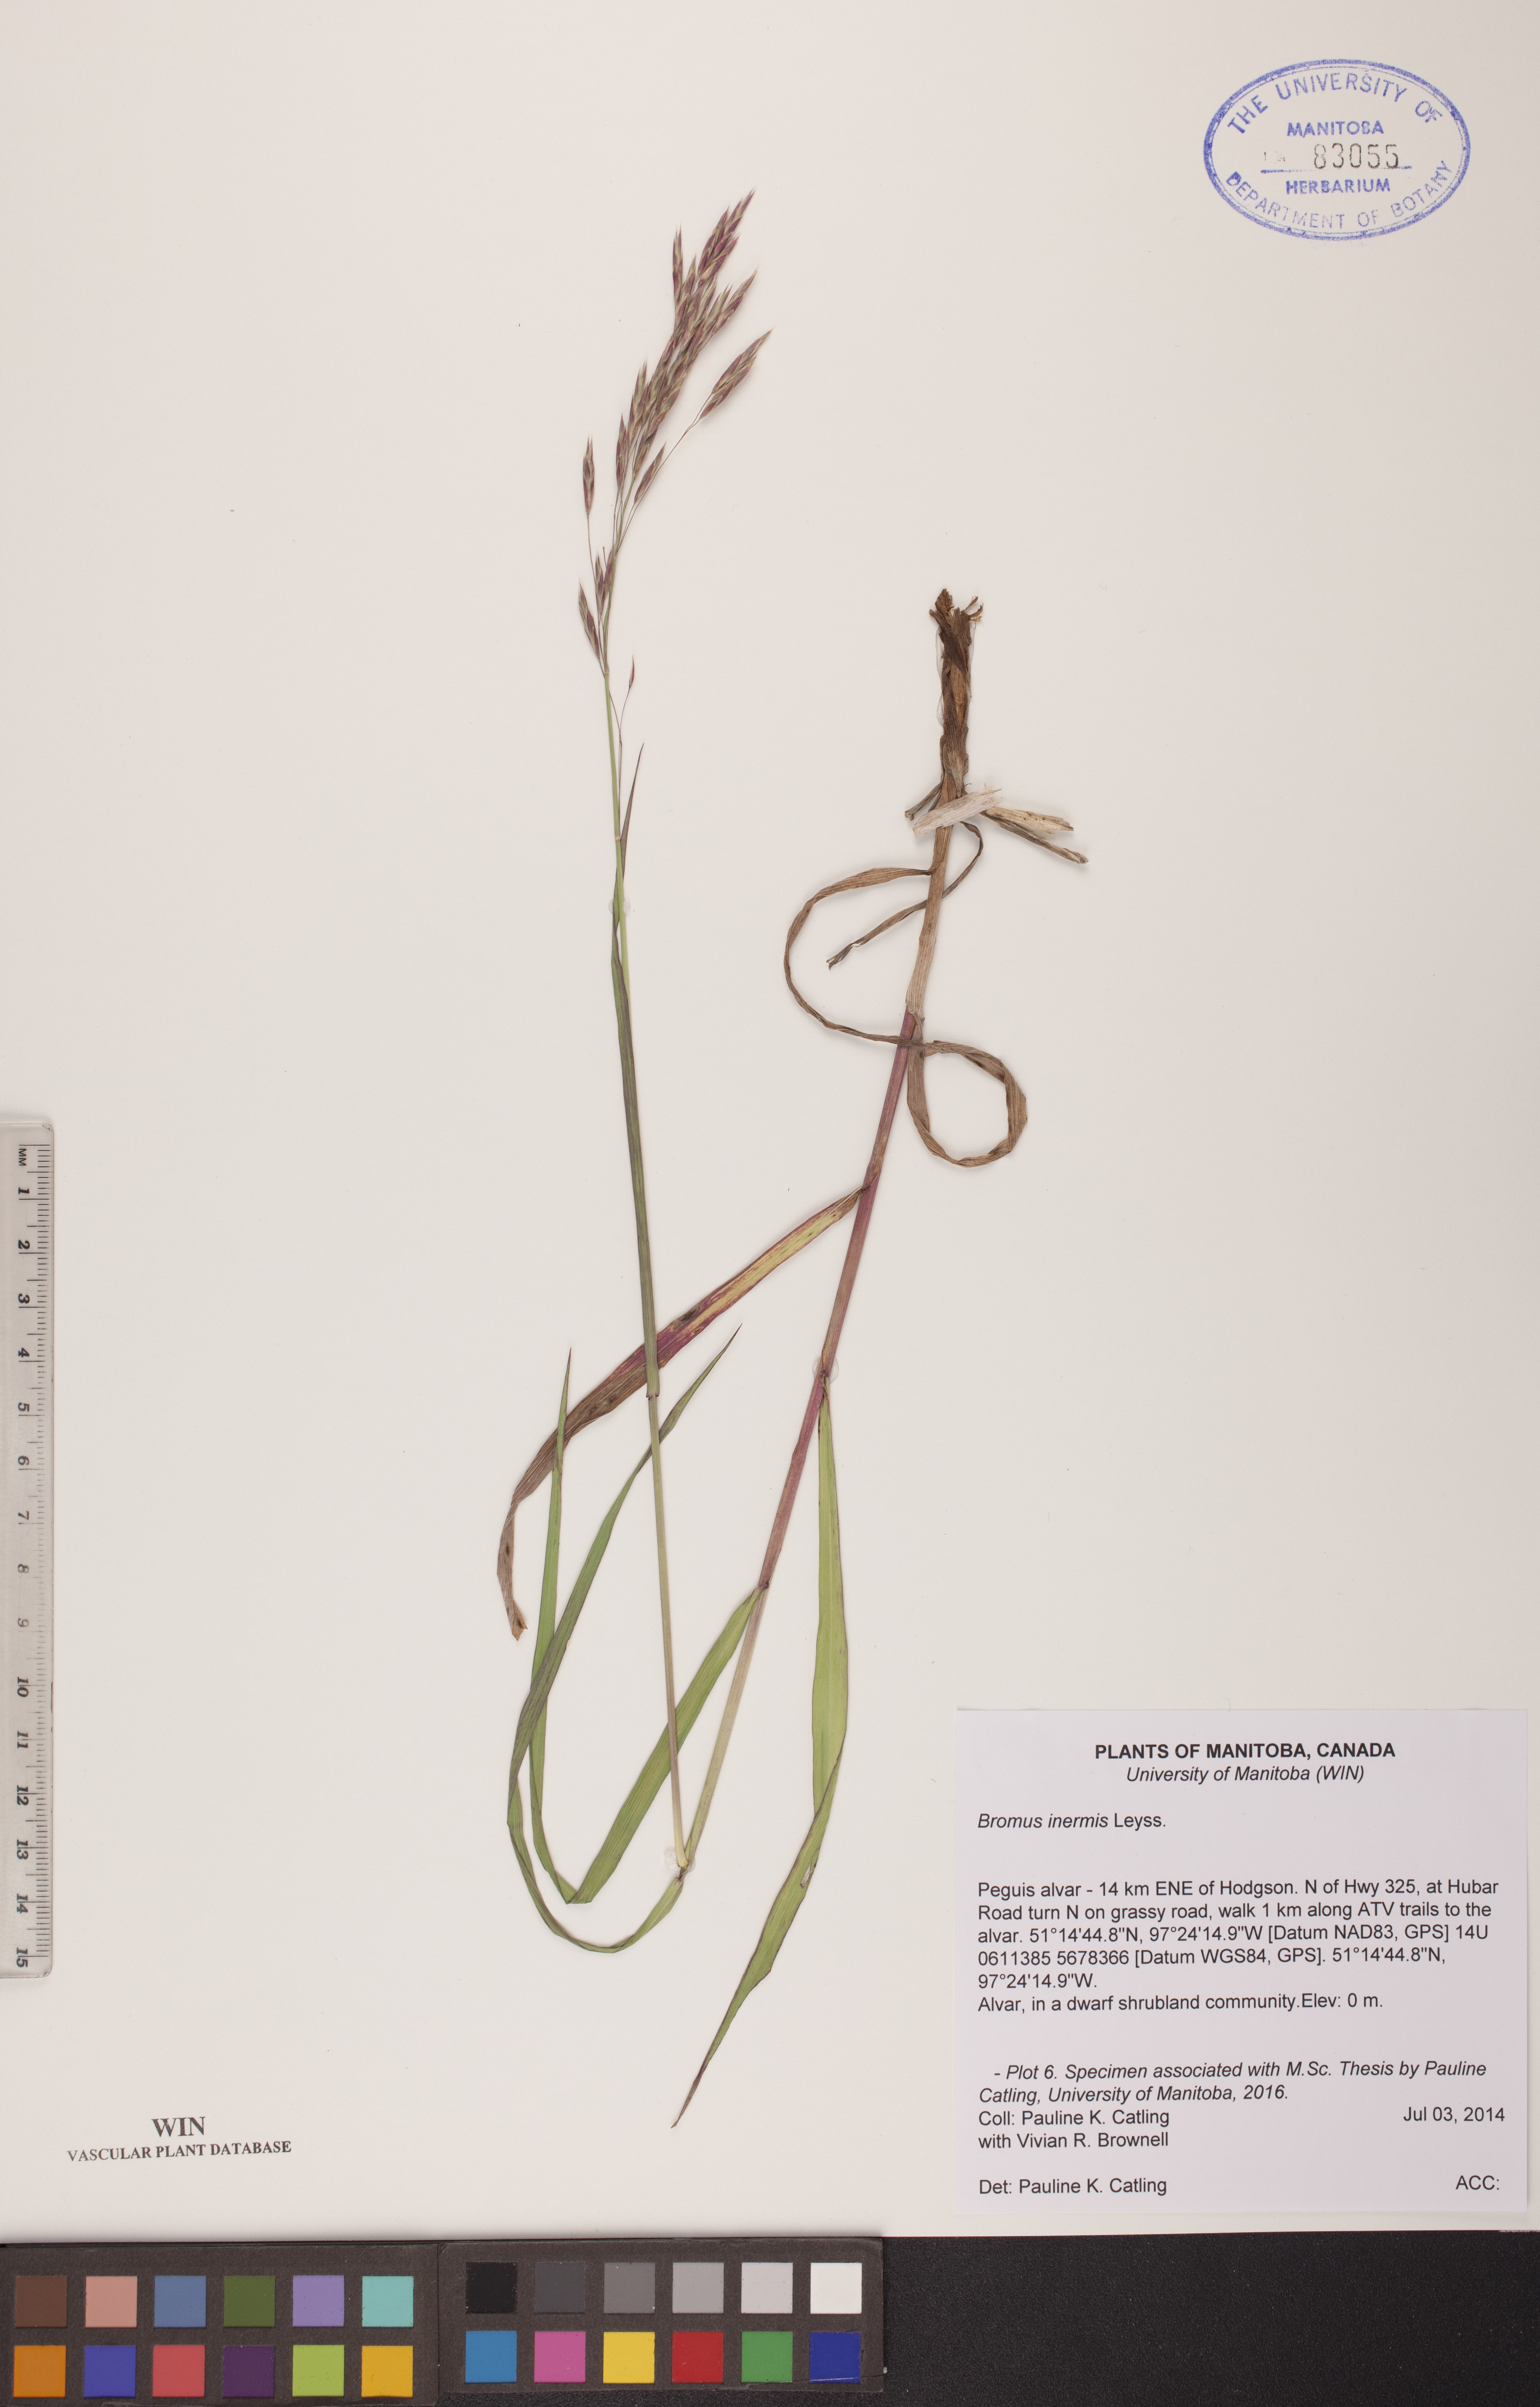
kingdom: Plantae
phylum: Tracheophyta
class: Liliopsida
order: Poales
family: Poaceae
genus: Bromus
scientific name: Bromus inermis
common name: Smooth brome
